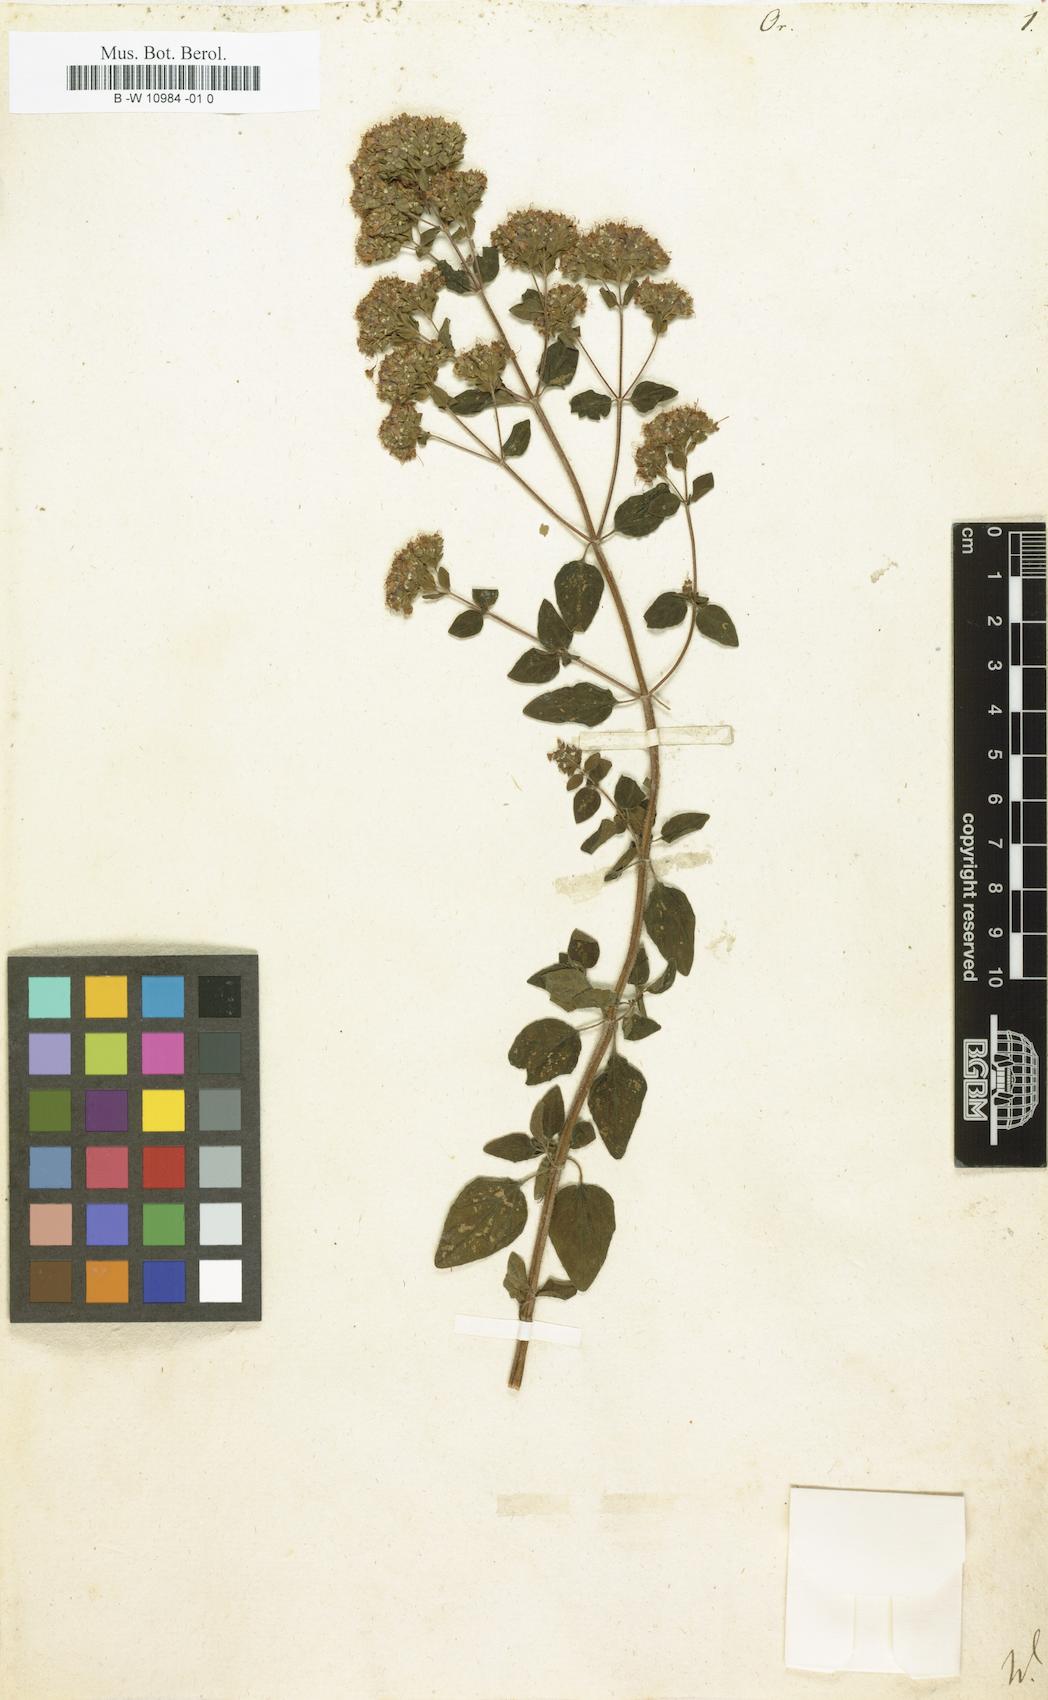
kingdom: Plantae
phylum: Tracheophyta
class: Magnoliopsida
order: Lamiales
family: Lamiaceae
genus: Origanum
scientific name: Origanum
